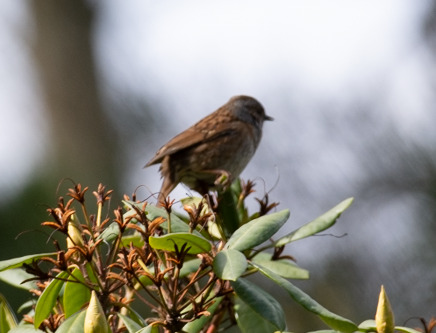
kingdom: Animalia
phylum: Chordata
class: Aves
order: Passeriformes
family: Prunellidae
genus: Prunella
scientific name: Prunella modularis
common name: Jernspurv
